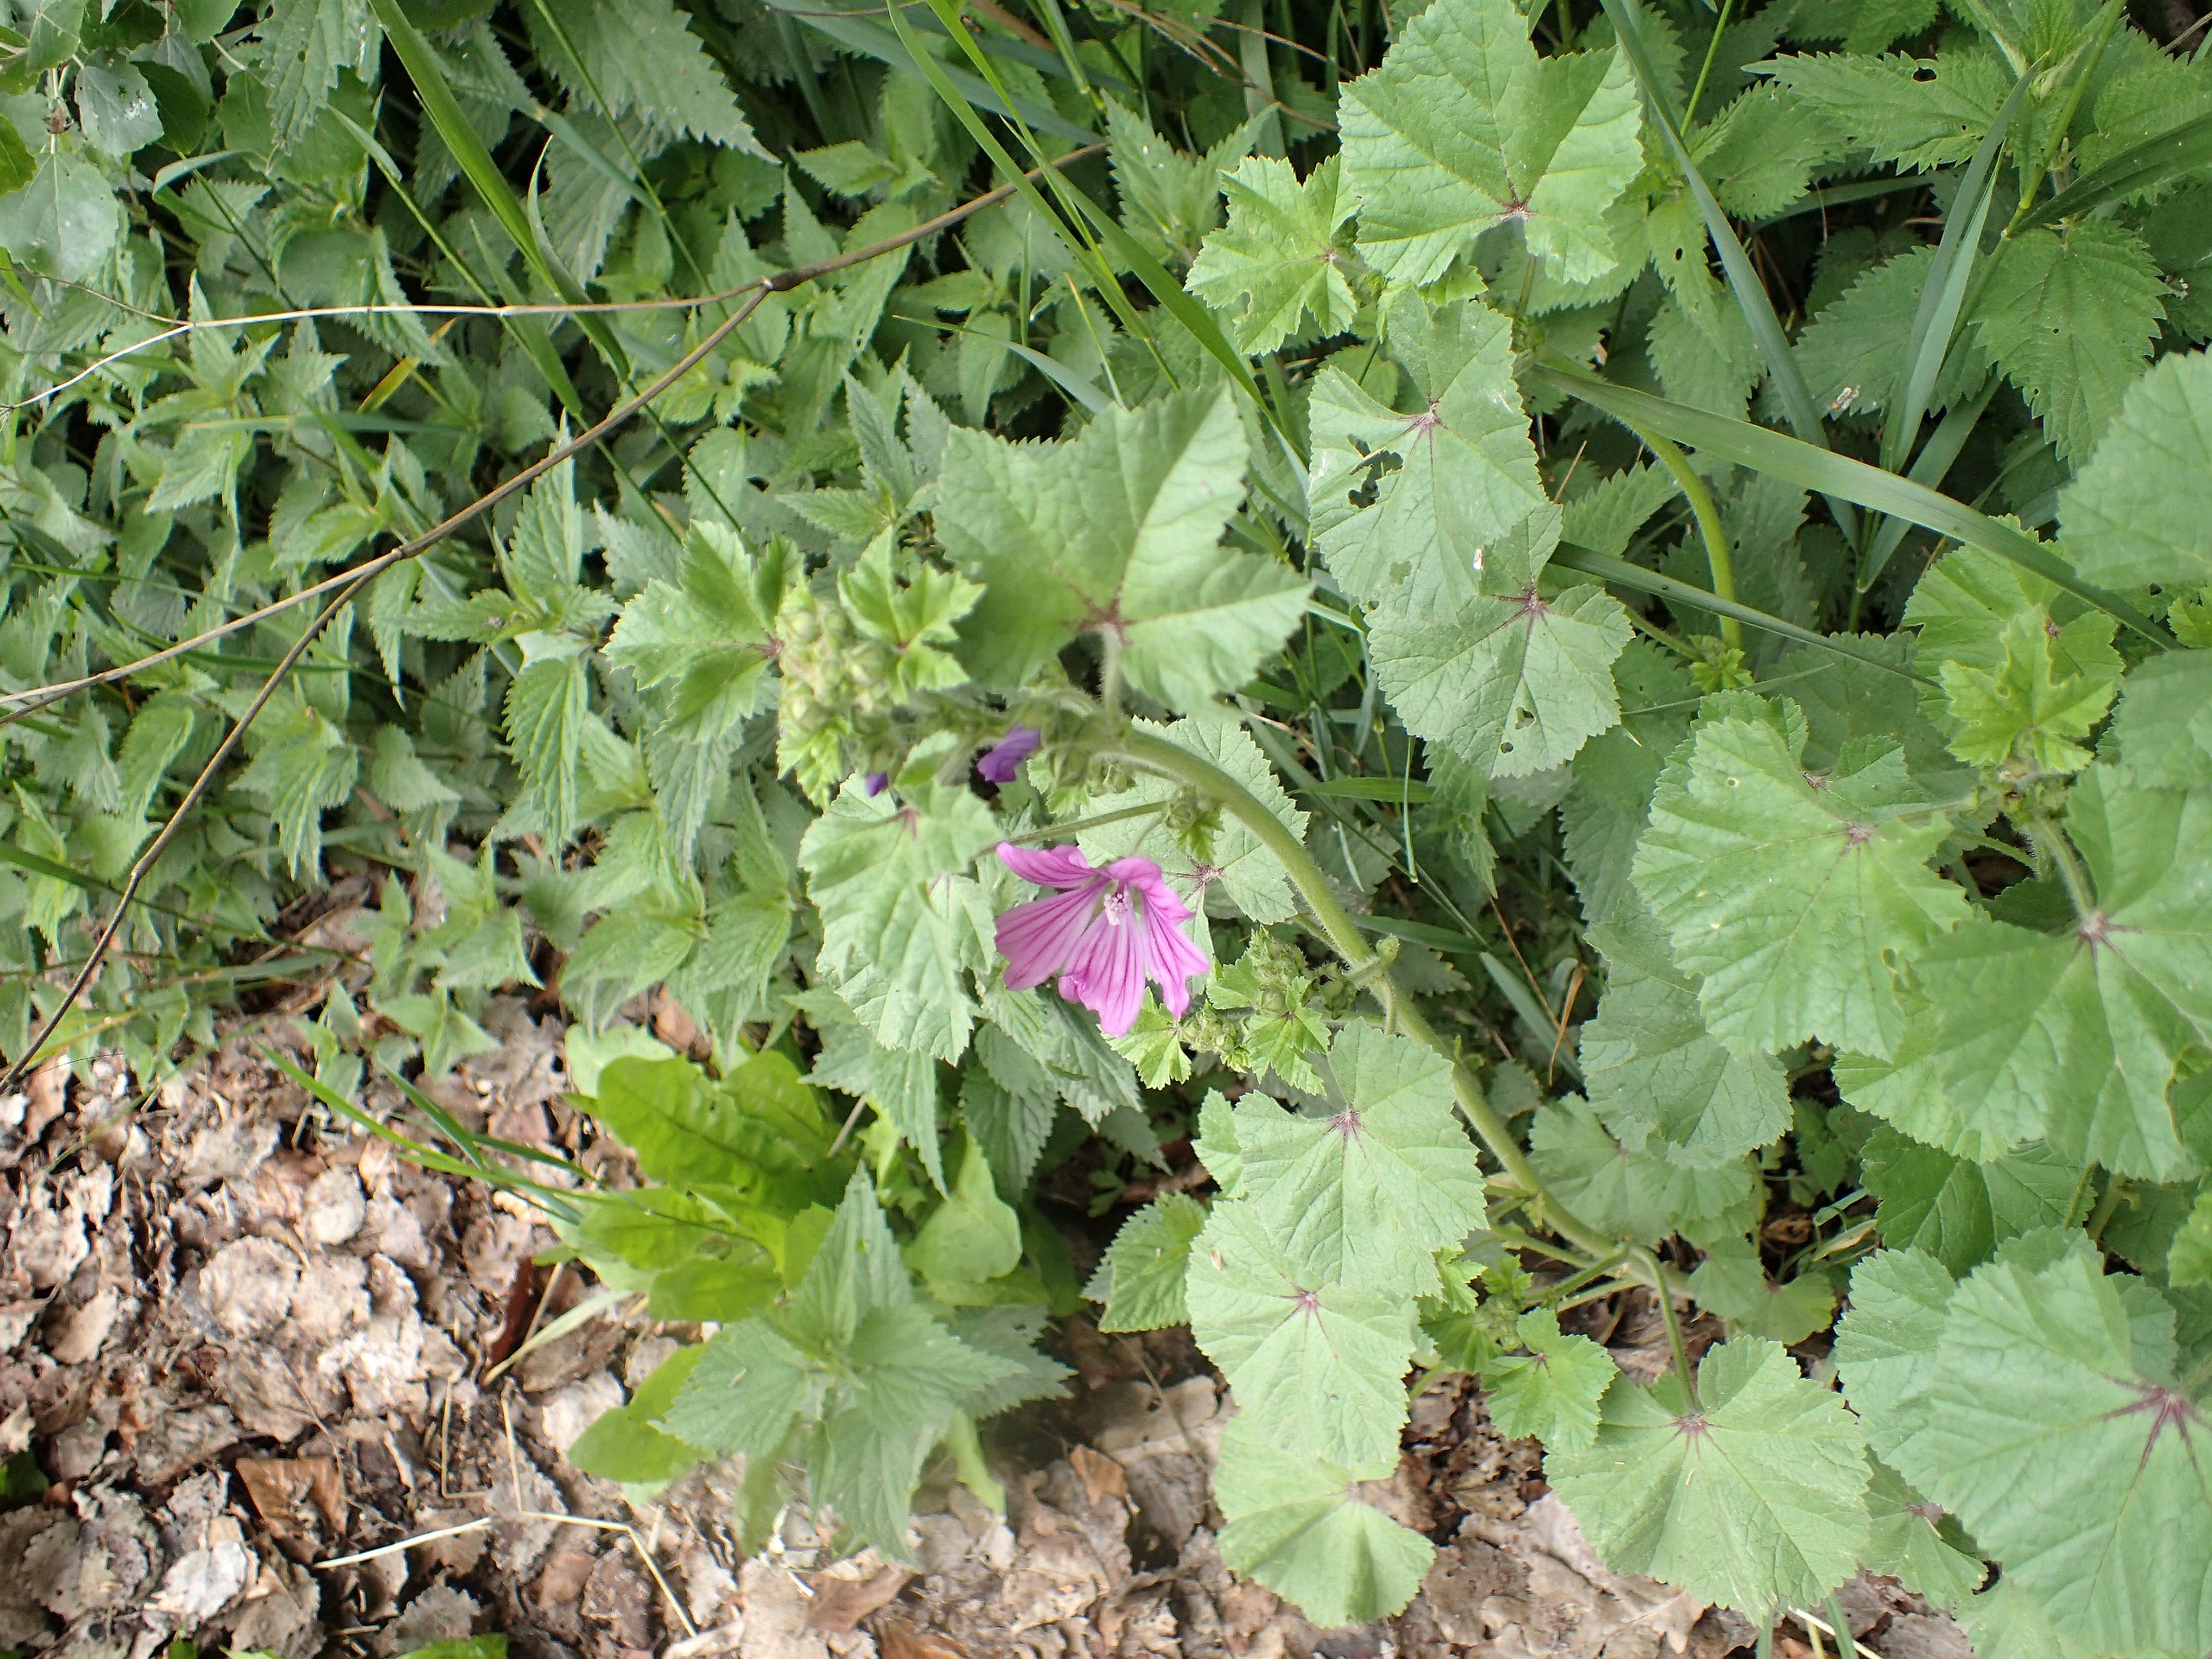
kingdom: Plantae
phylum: Tracheophyta
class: Magnoliopsida
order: Malvales
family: Malvaceae
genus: Malva
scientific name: Malva sylvestris
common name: Almindelig katost
